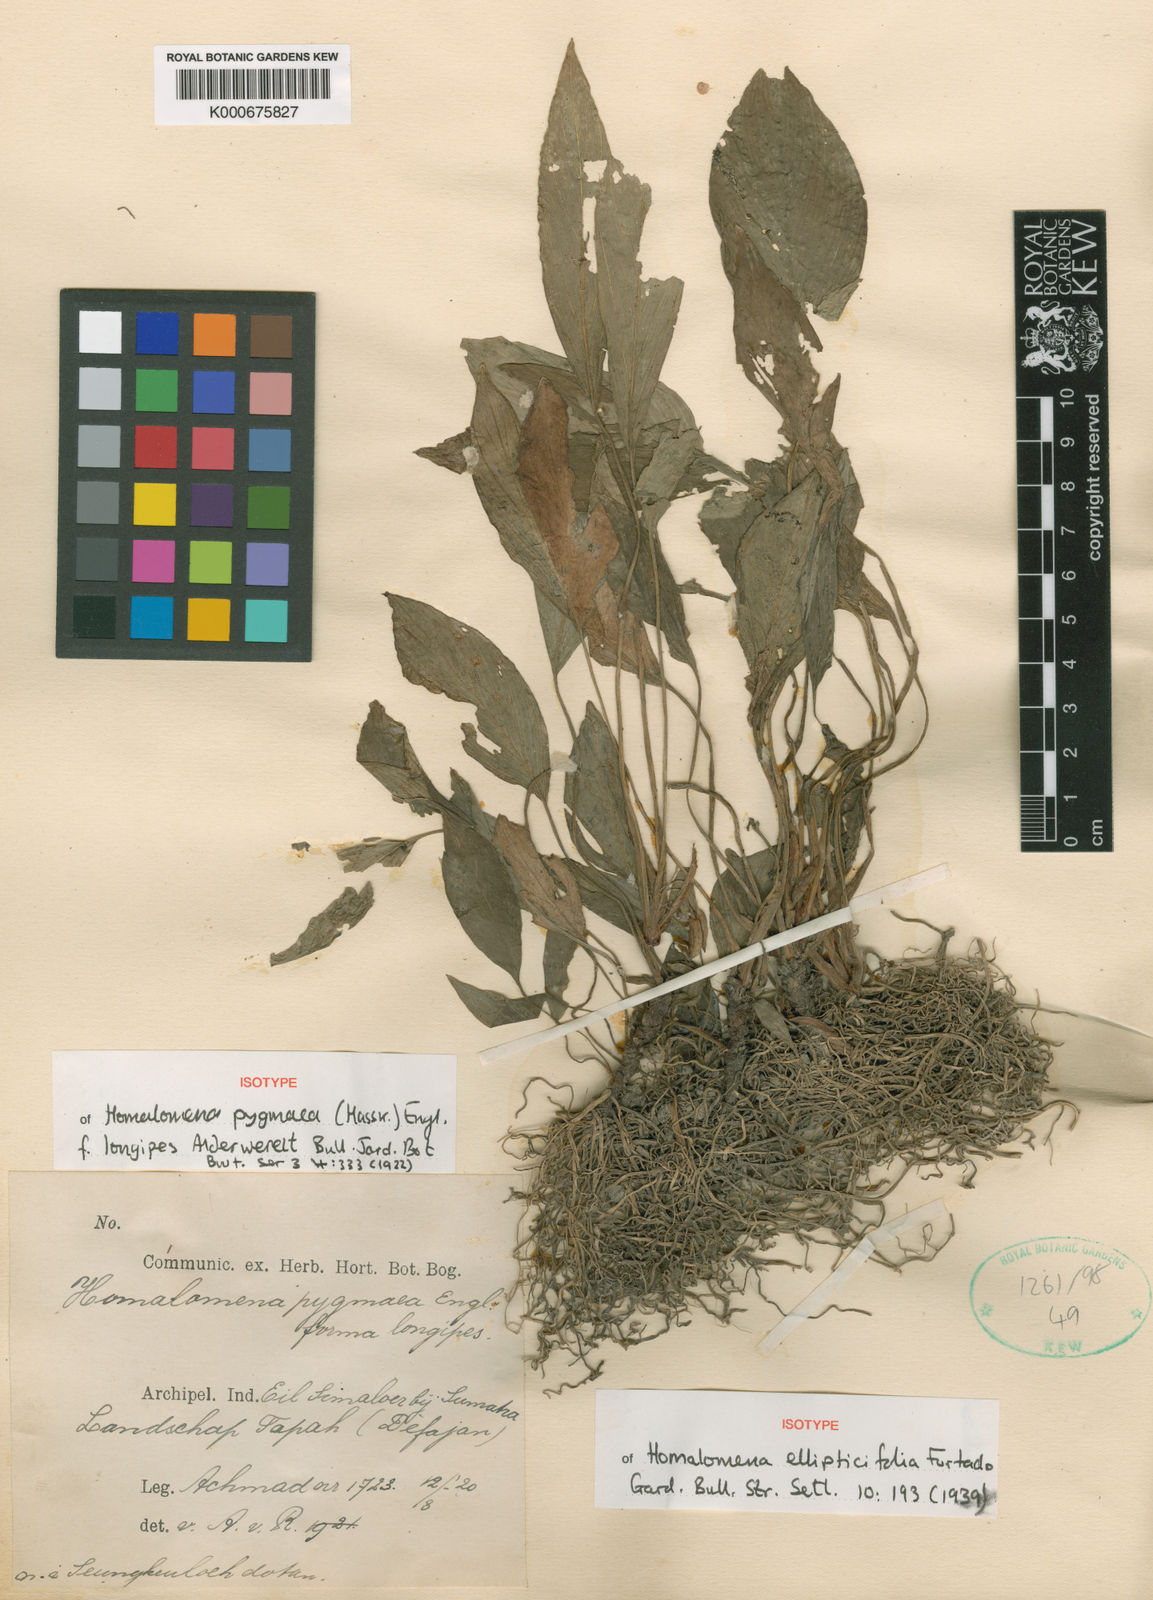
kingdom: Plantae
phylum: Tracheophyta
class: Liliopsida
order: Alismatales
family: Araceae
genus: Homalomena
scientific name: Homalomena humilis
